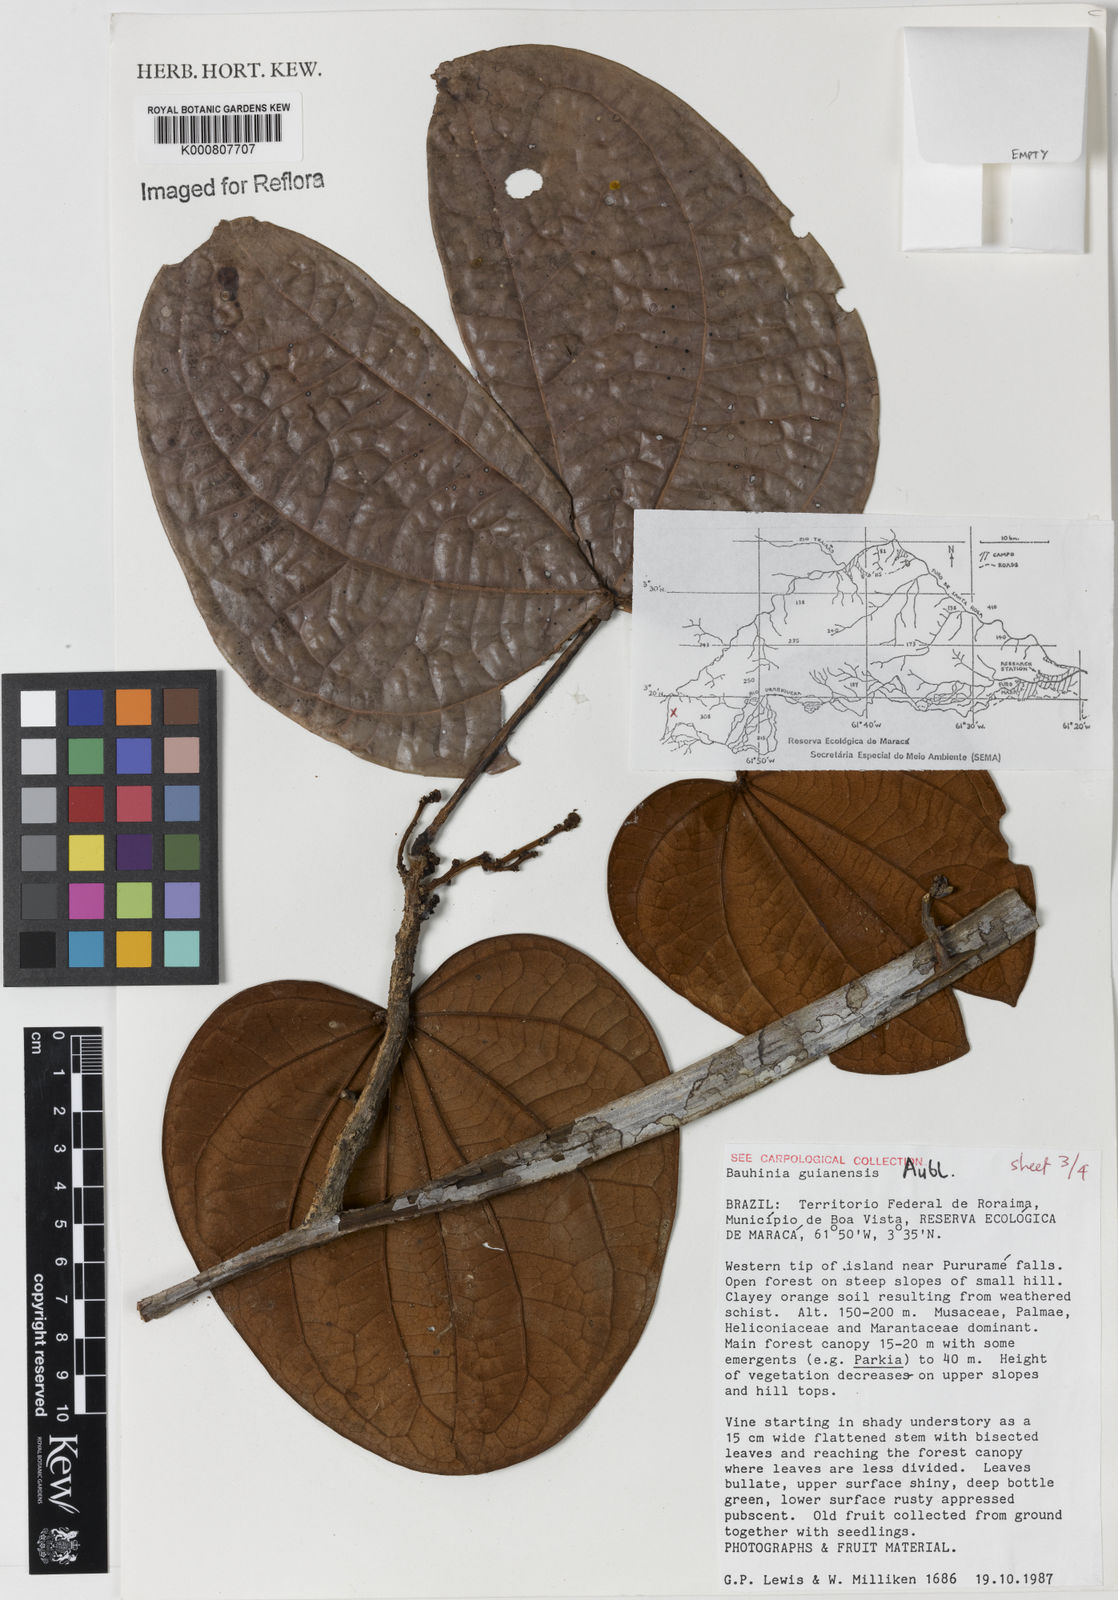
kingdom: Plantae
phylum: Tracheophyta
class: Magnoliopsida
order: Fabales
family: Fabaceae
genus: Schnella
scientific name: Schnella guianensis
